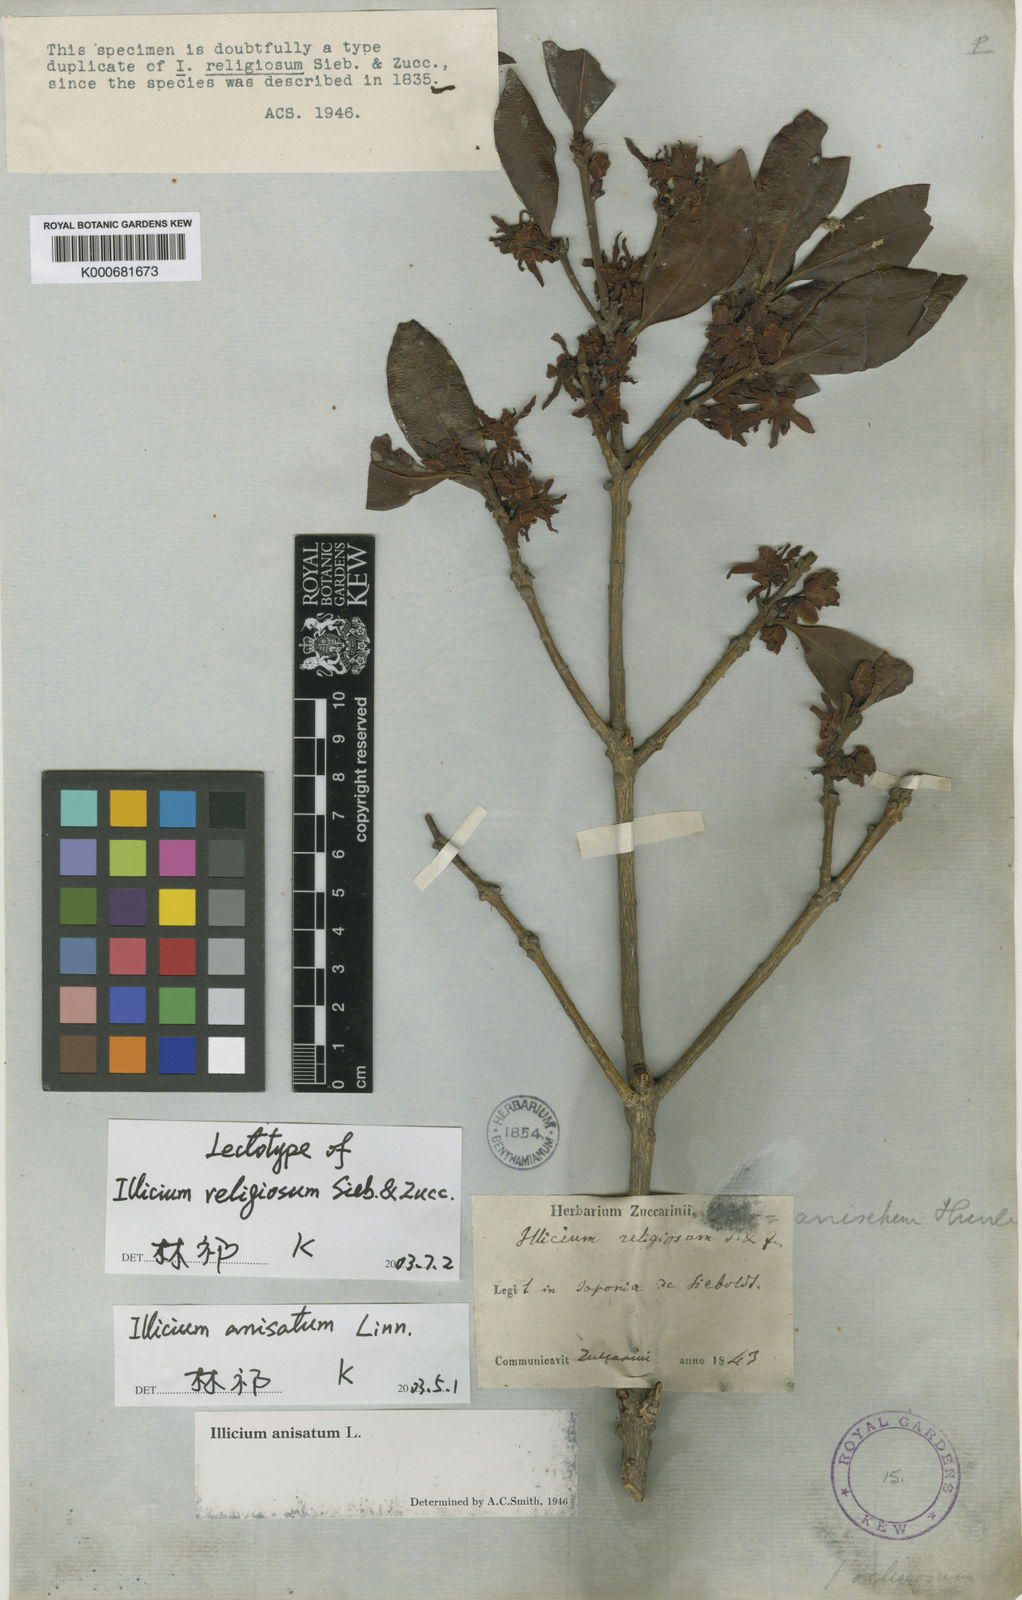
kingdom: Plantae
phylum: Tracheophyta
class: Magnoliopsida
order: Austrobaileyales
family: Schisandraceae
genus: Illicium
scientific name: Illicium anisatum
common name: Sacred anisetree
